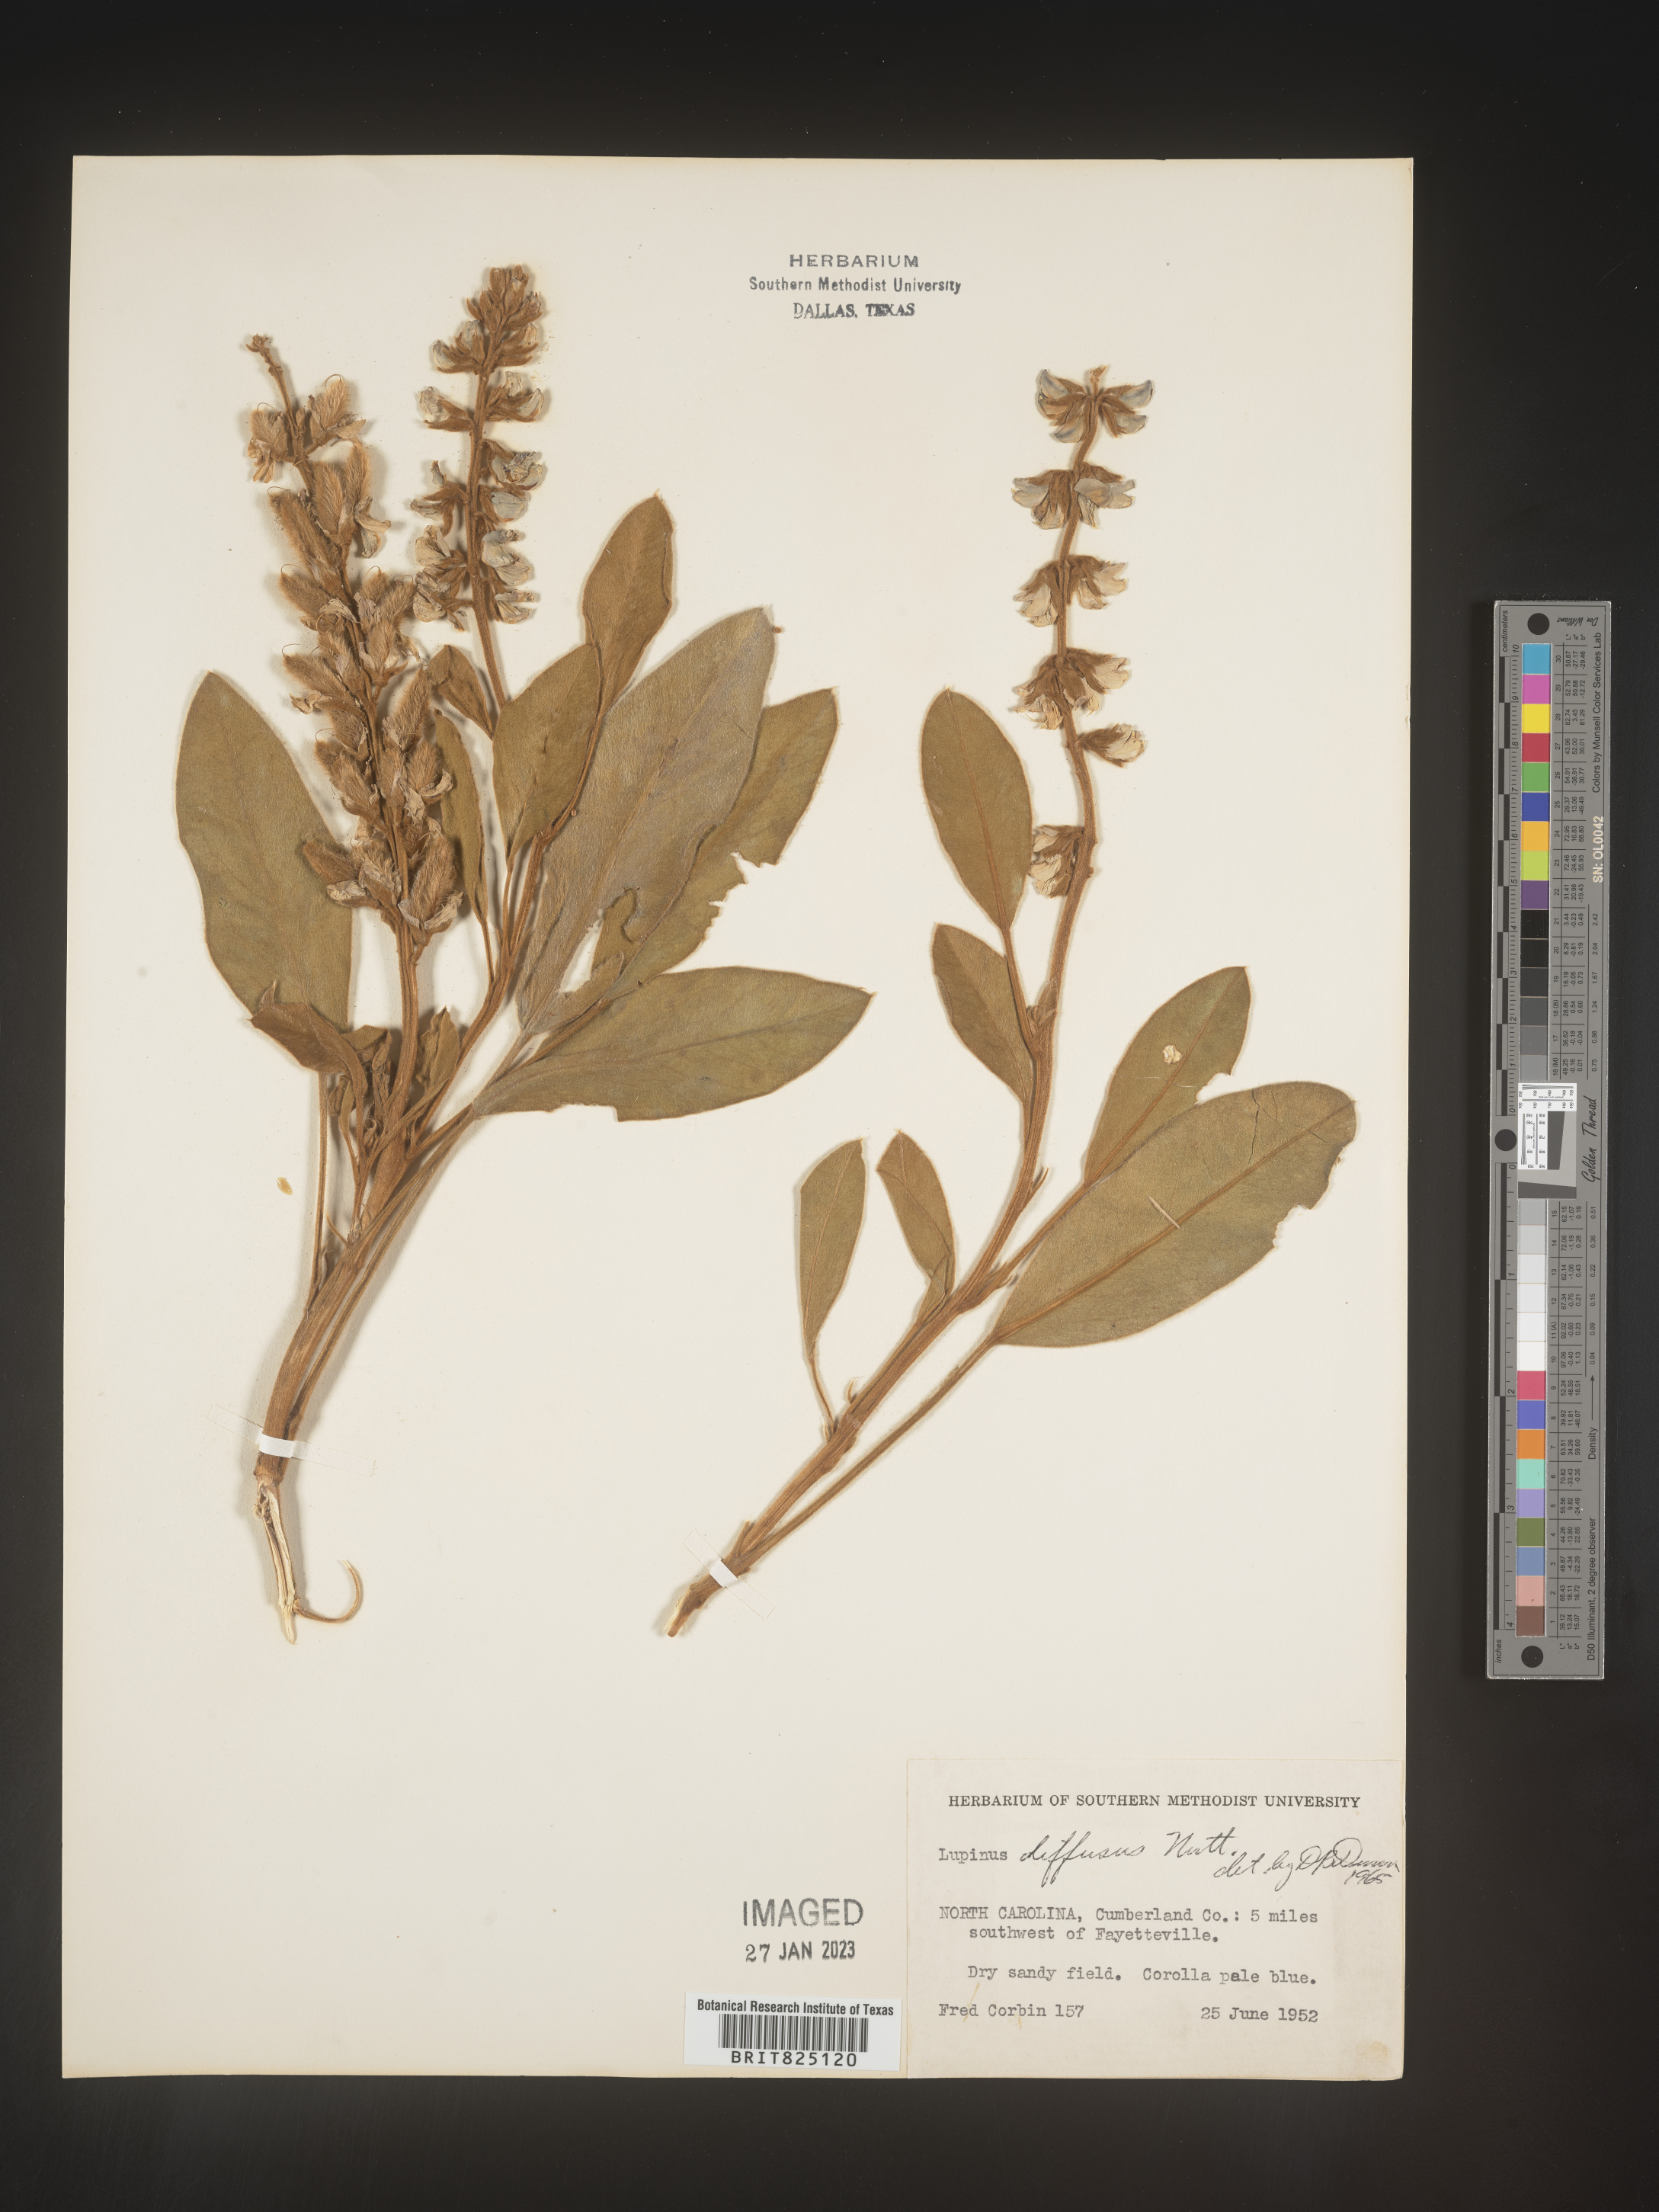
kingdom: Plantae
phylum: Tracheophyta
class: Magnoliopsida
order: Fabales
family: Fabaceae
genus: Lupinus
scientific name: Lupinus diffusus
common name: Oak ridge lupine
